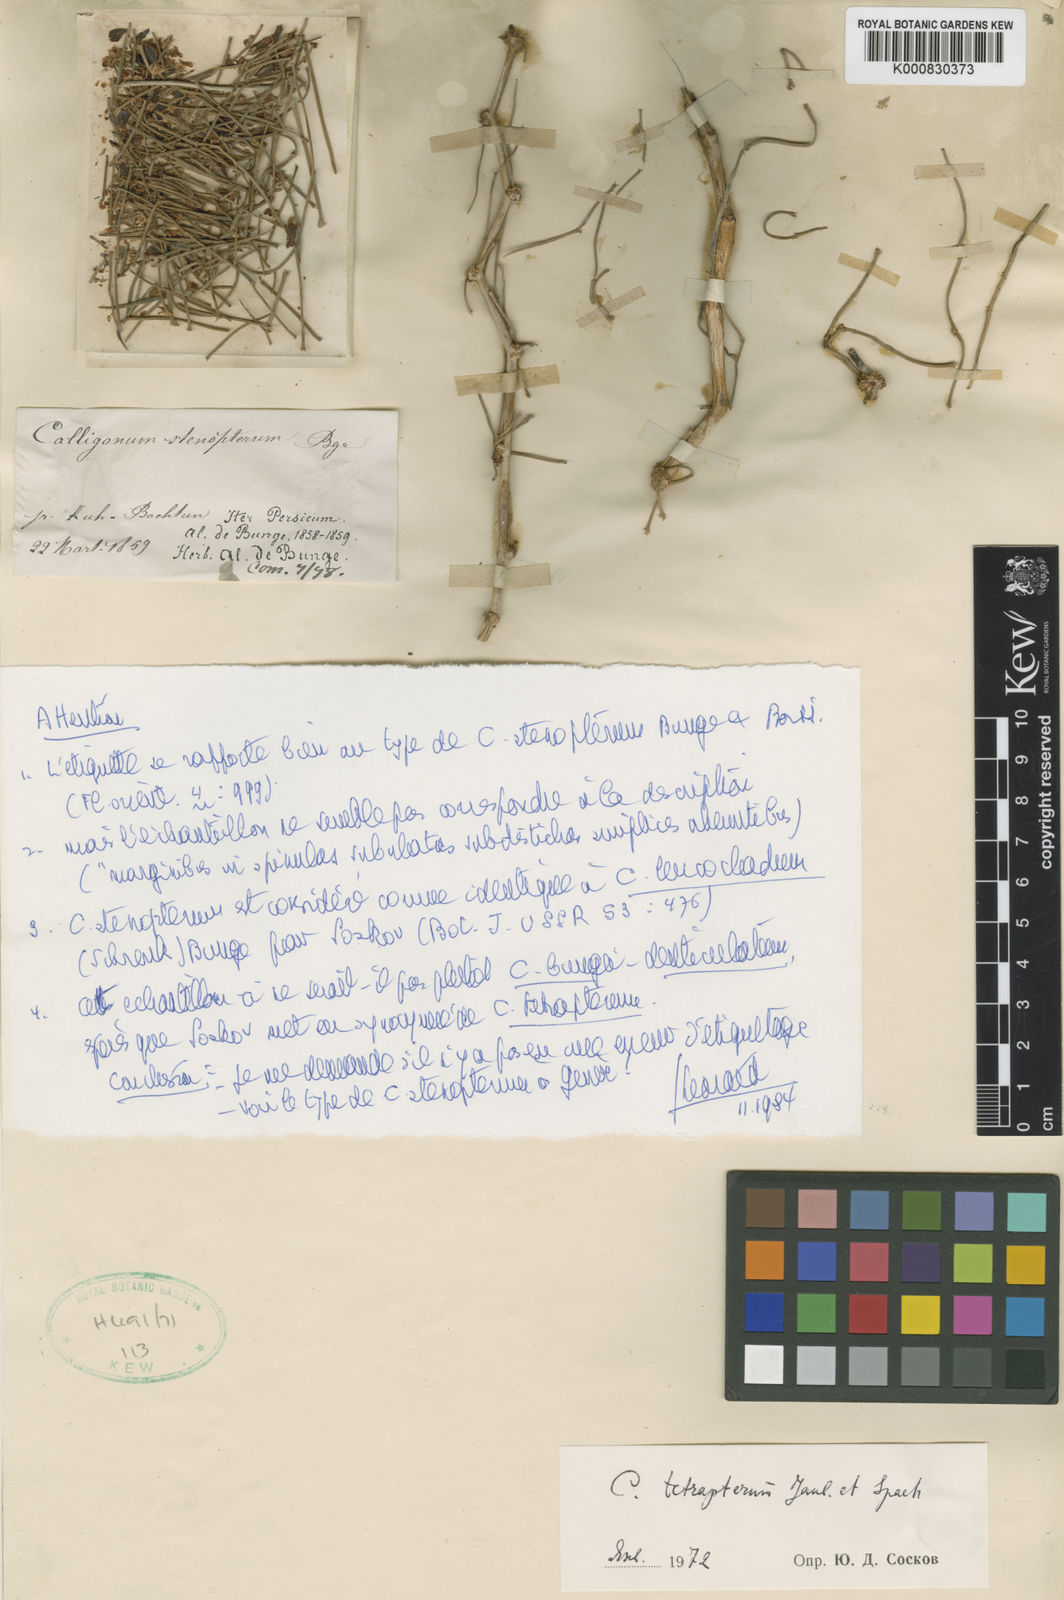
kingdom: Plantae
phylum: Tracheophyta
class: Magnoliopsida
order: Caryophyllales
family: Polygonaceae
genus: Calligonum
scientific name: Calligonum tetrapterum
